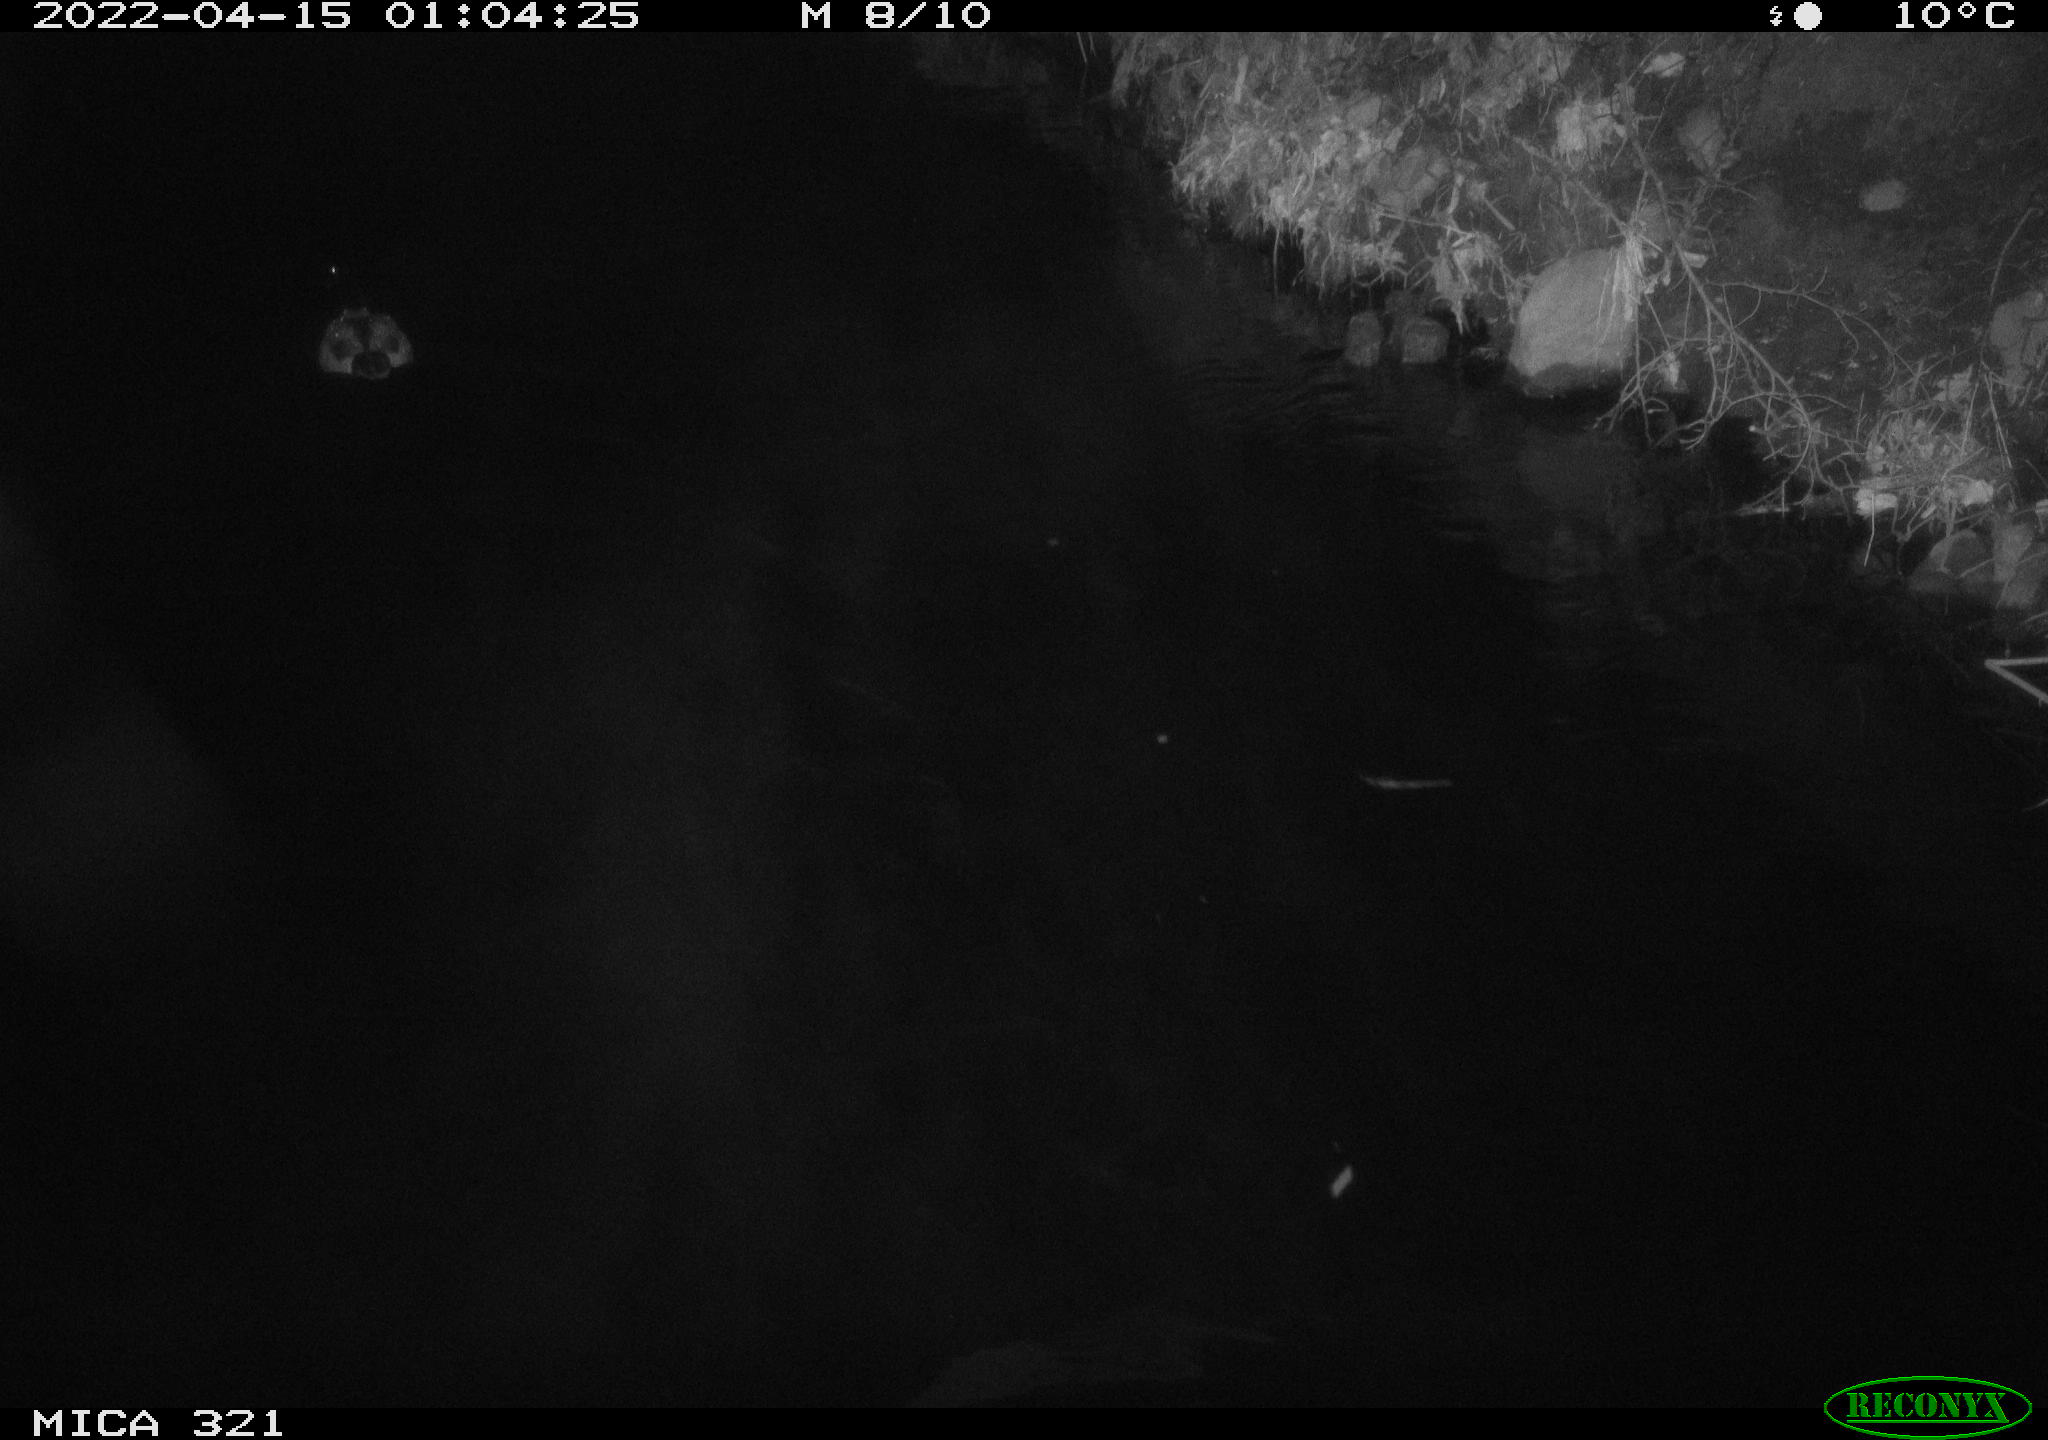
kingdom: Animalia
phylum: Chordata
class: Aves
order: Anseriformes
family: Anatidae
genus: Anas
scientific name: Anas platyrhynchos
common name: Mallard
